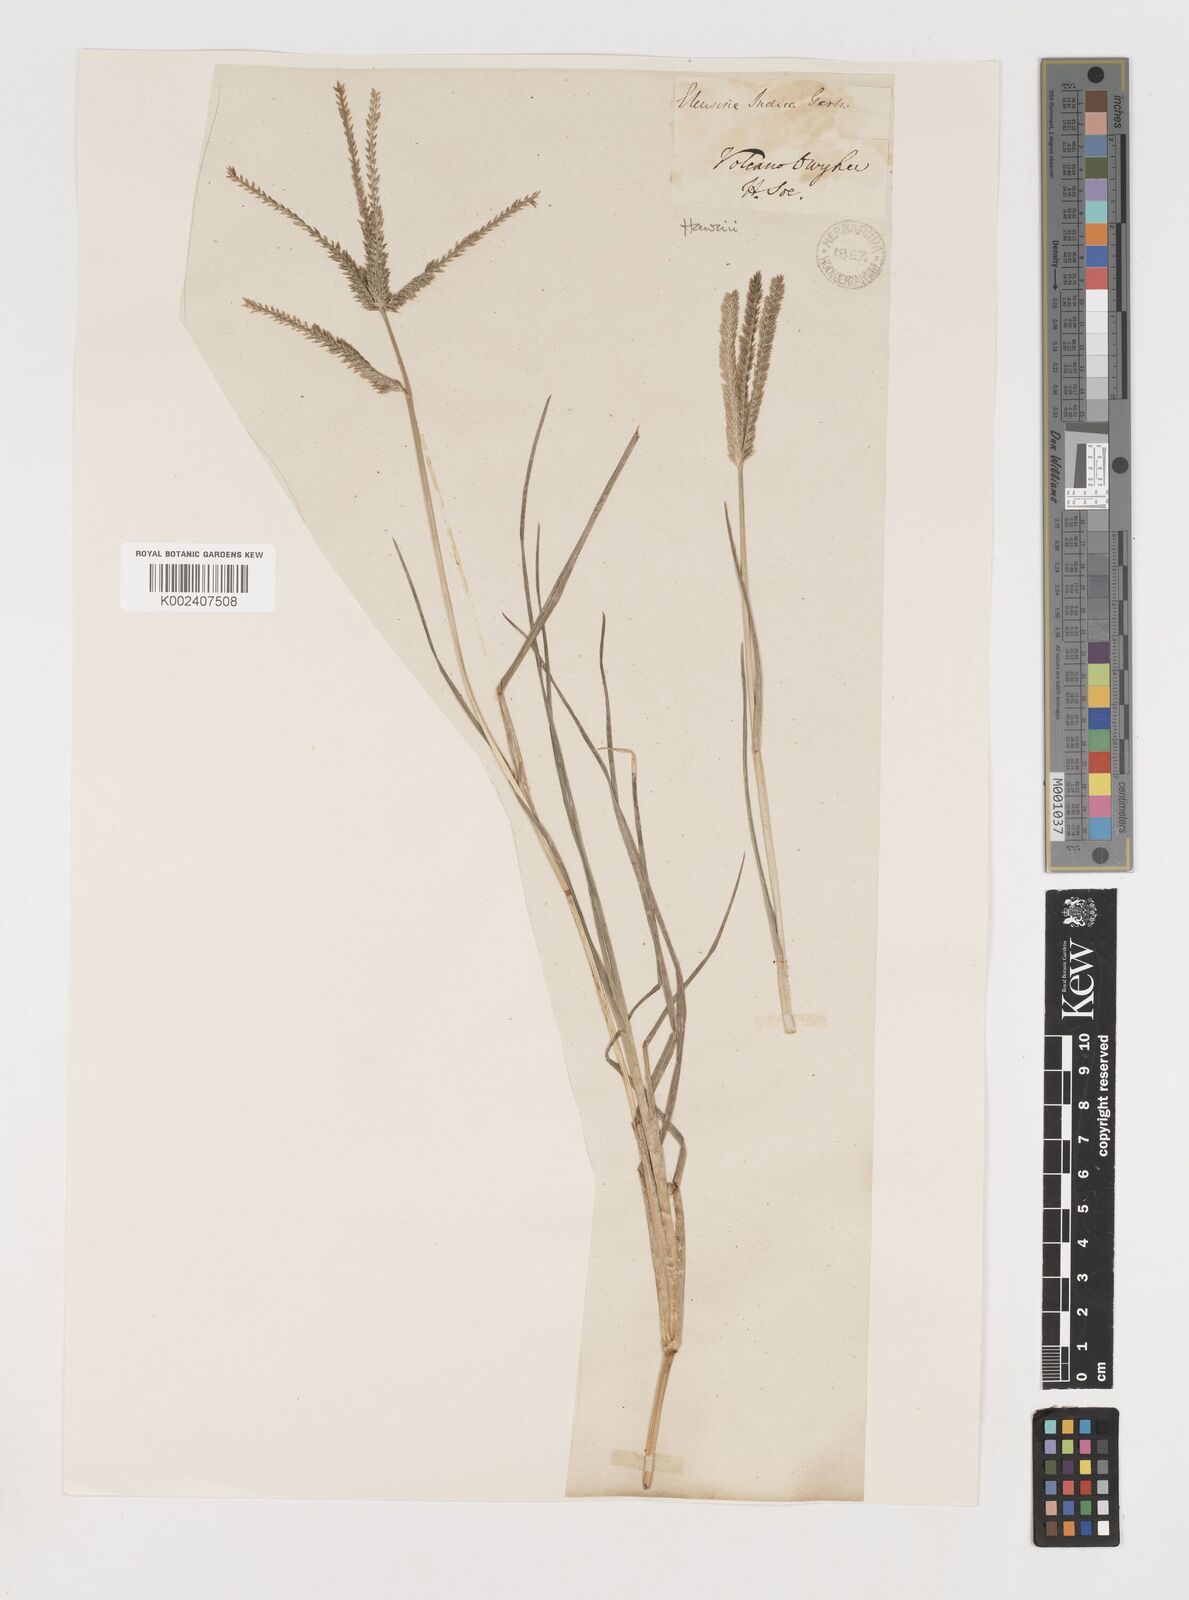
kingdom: Plantae
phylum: Tracheophyta
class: Liliopsida
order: Poales
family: Poaceae
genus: Eleusine
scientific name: Eleusine indica
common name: Yard-grass
